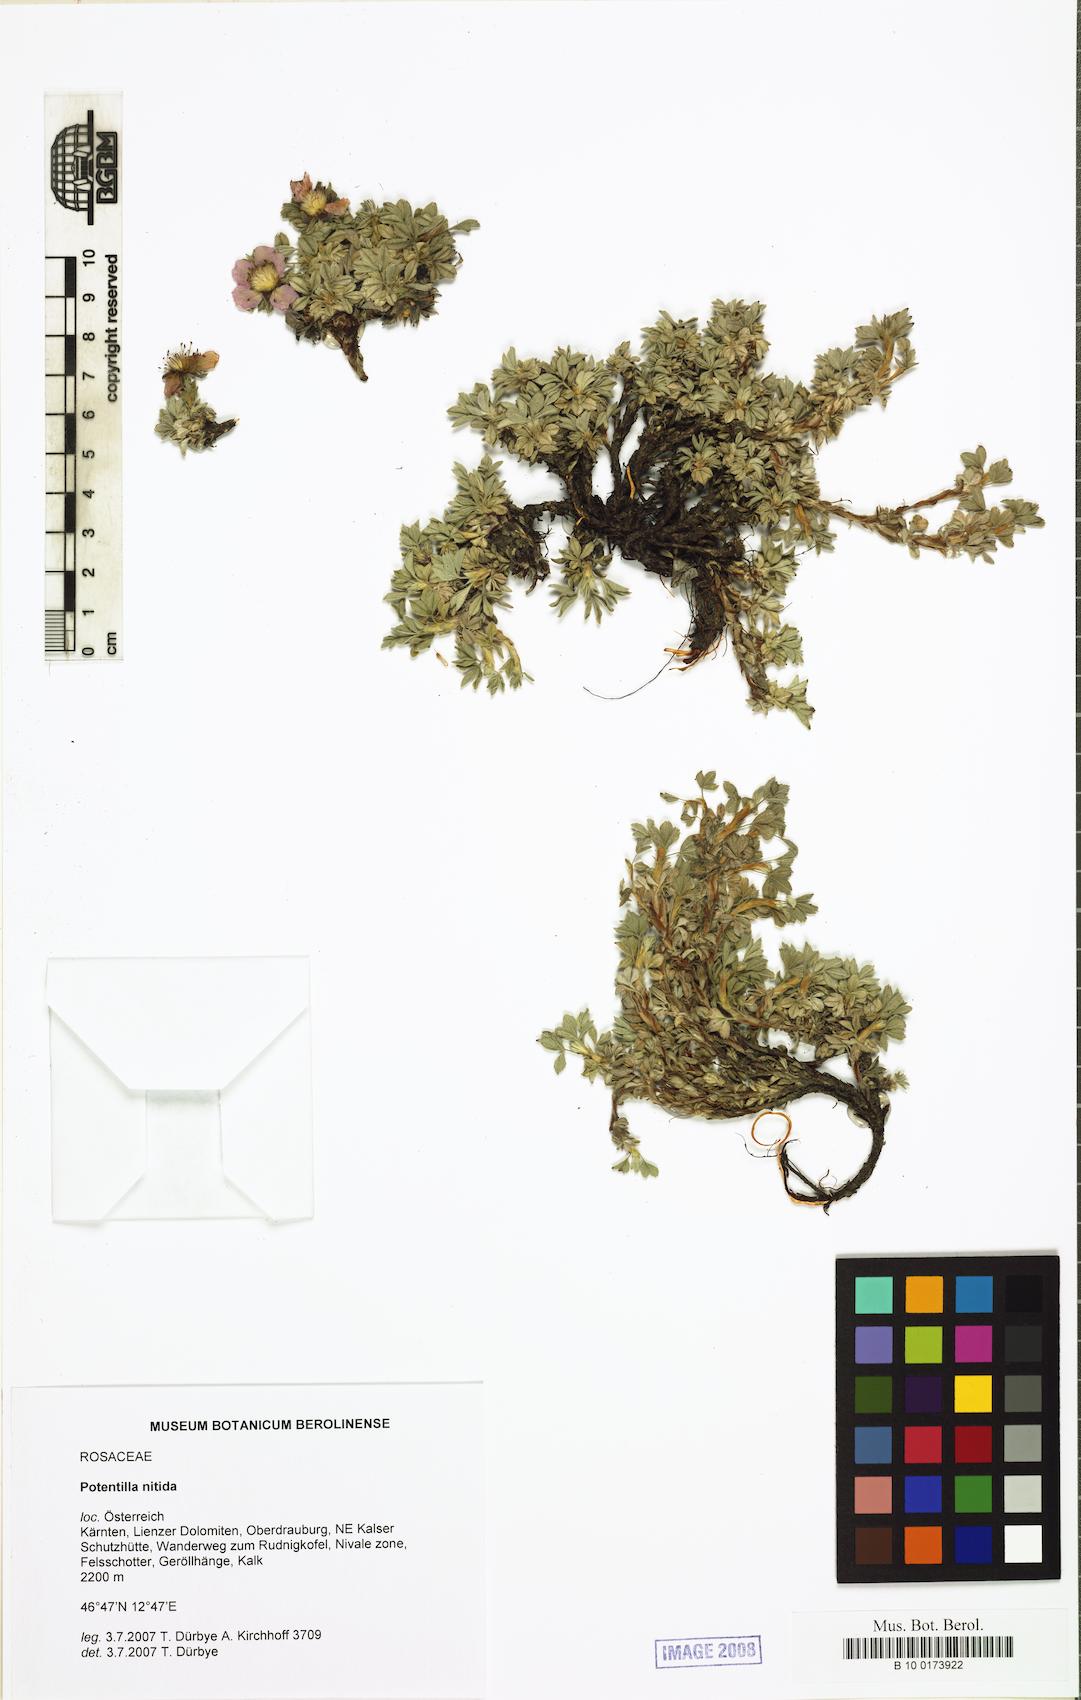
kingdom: Plantae
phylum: Tracheophyta
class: Magnoliopsida
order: Rosales
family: Rosaceae
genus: Potentilla
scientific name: Potentilla nitida
